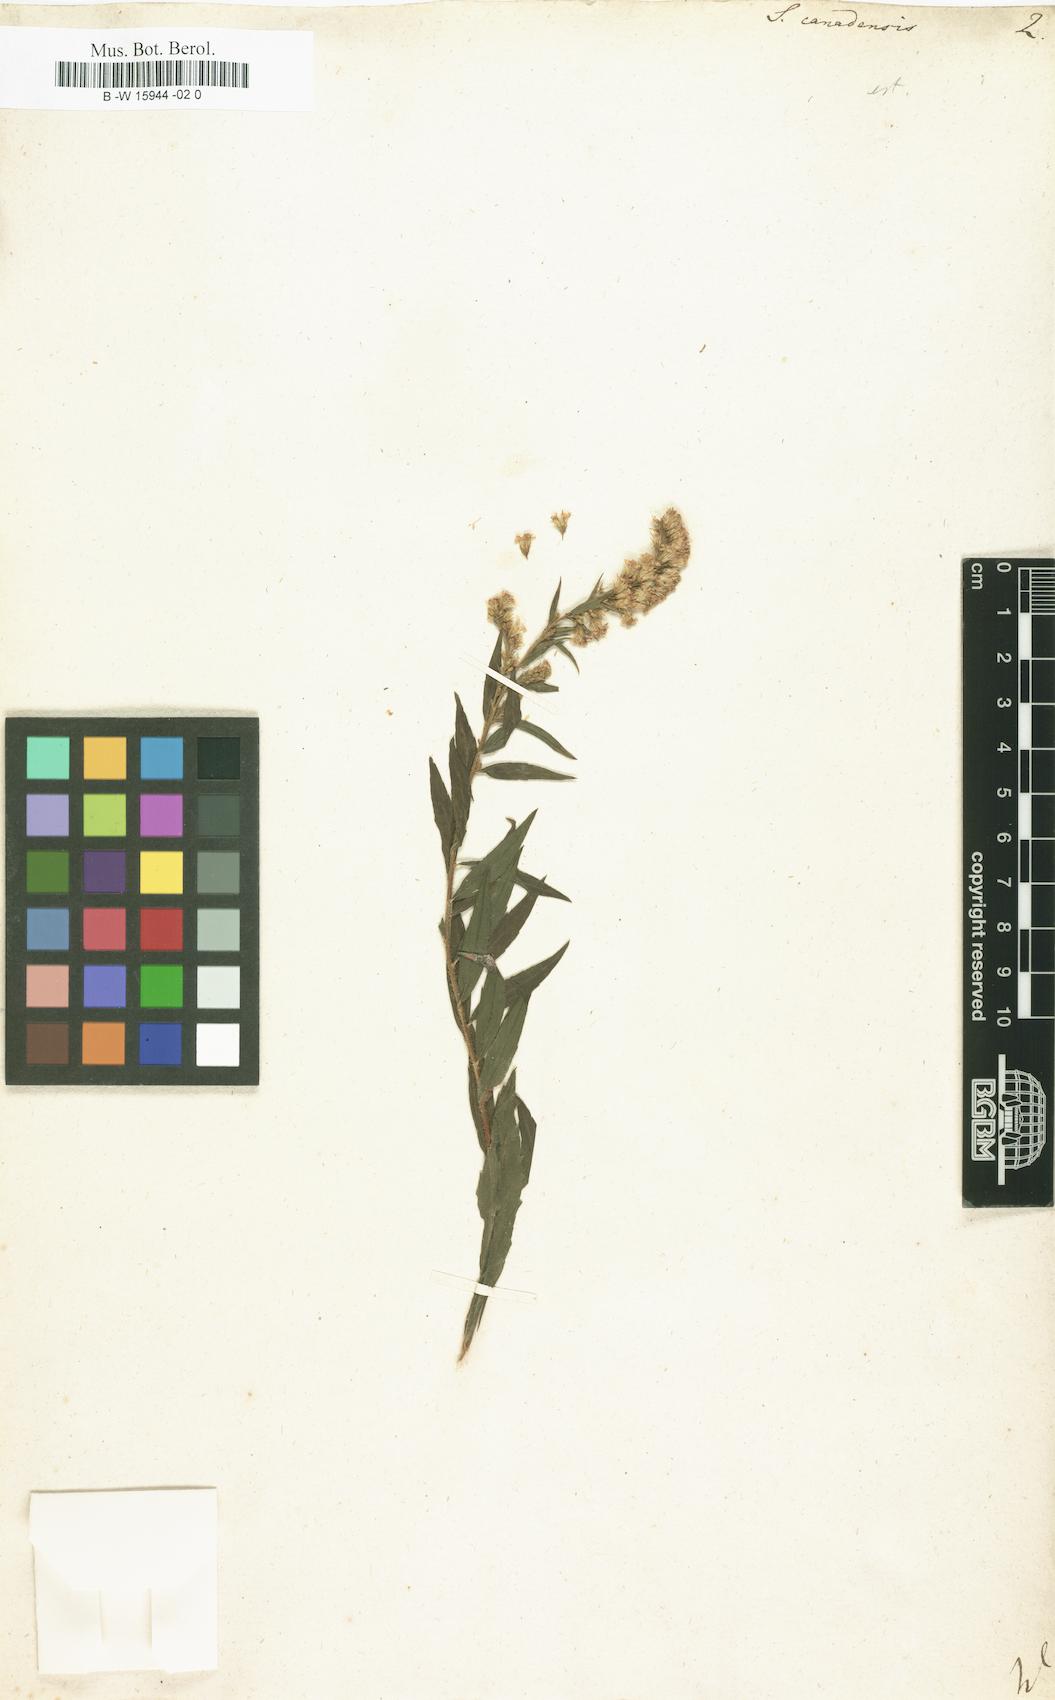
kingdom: Plantae
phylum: Tracheophyta
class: Magnoliopsida
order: Asterales
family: Asteraceae
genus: Solidago
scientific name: Solidago canadensis
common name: Canada goldenrod
